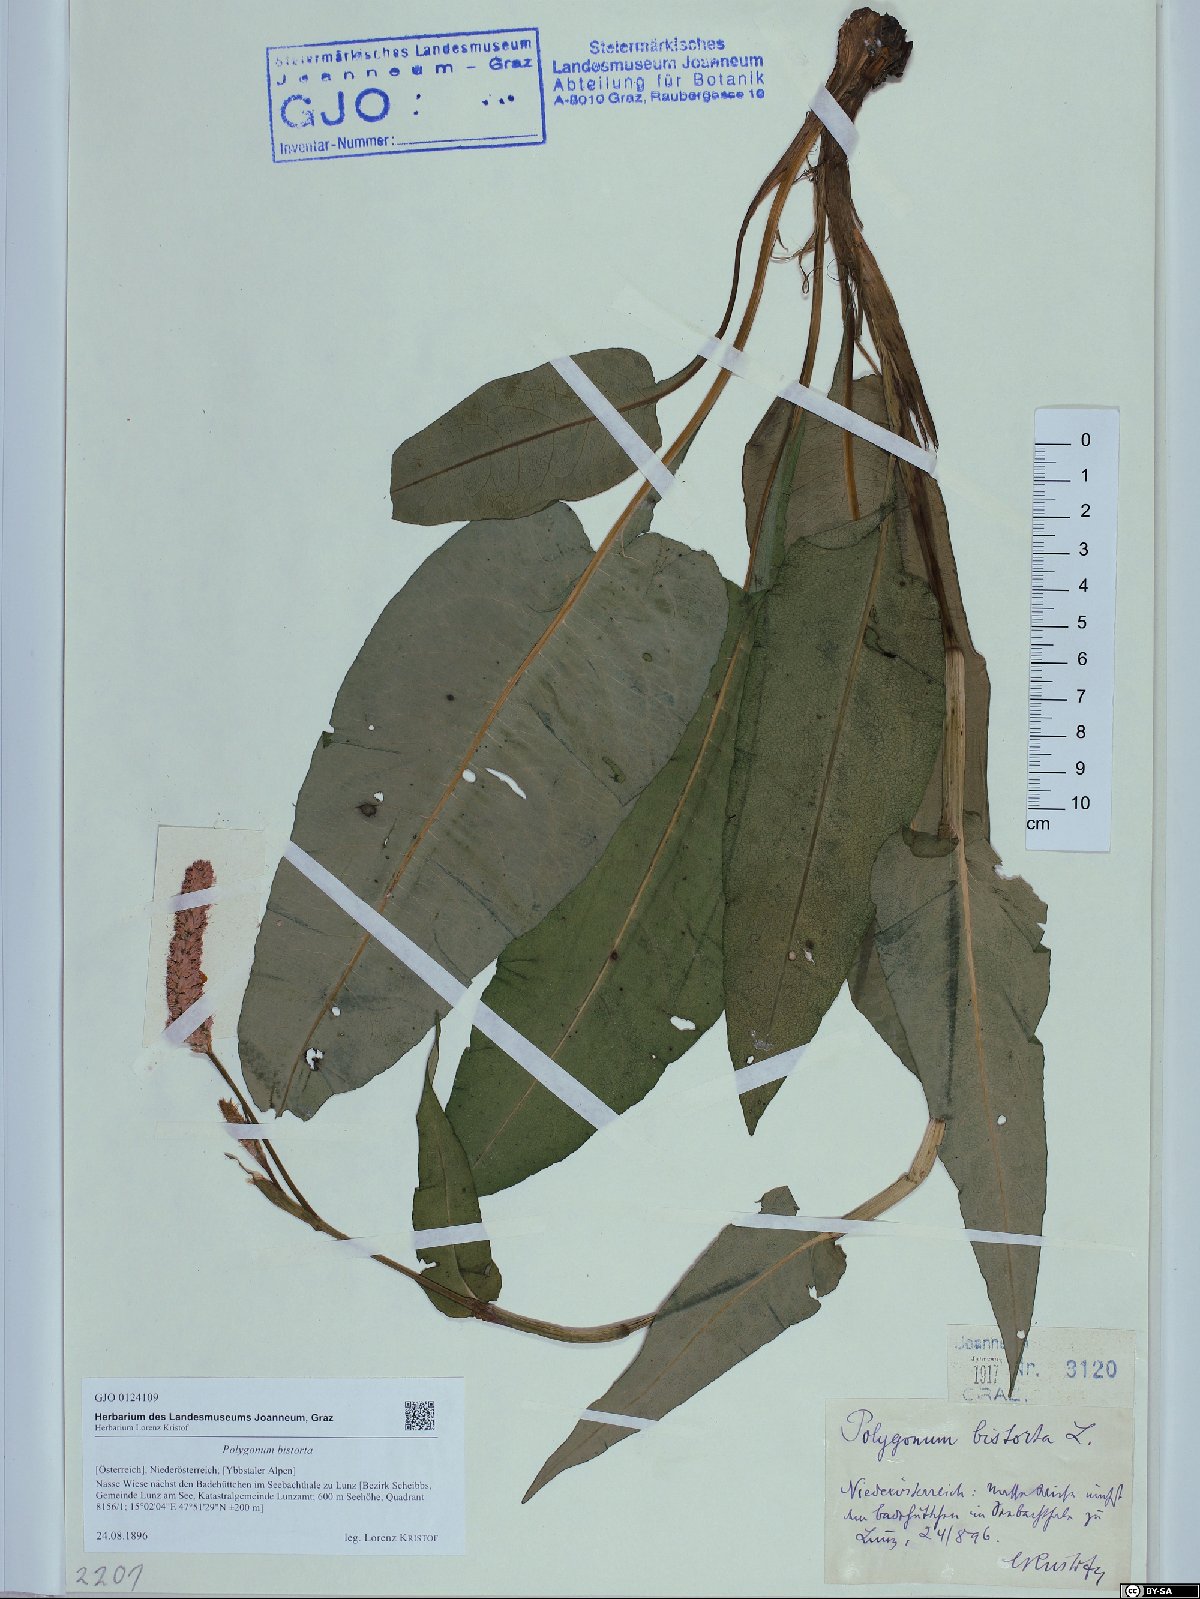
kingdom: Plantae
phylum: Tracheophyta
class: Magnoliopsida
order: Caryophyllales
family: Polygonaceae
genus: Bistorta
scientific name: Bistorta officinalis
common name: Common bistort
